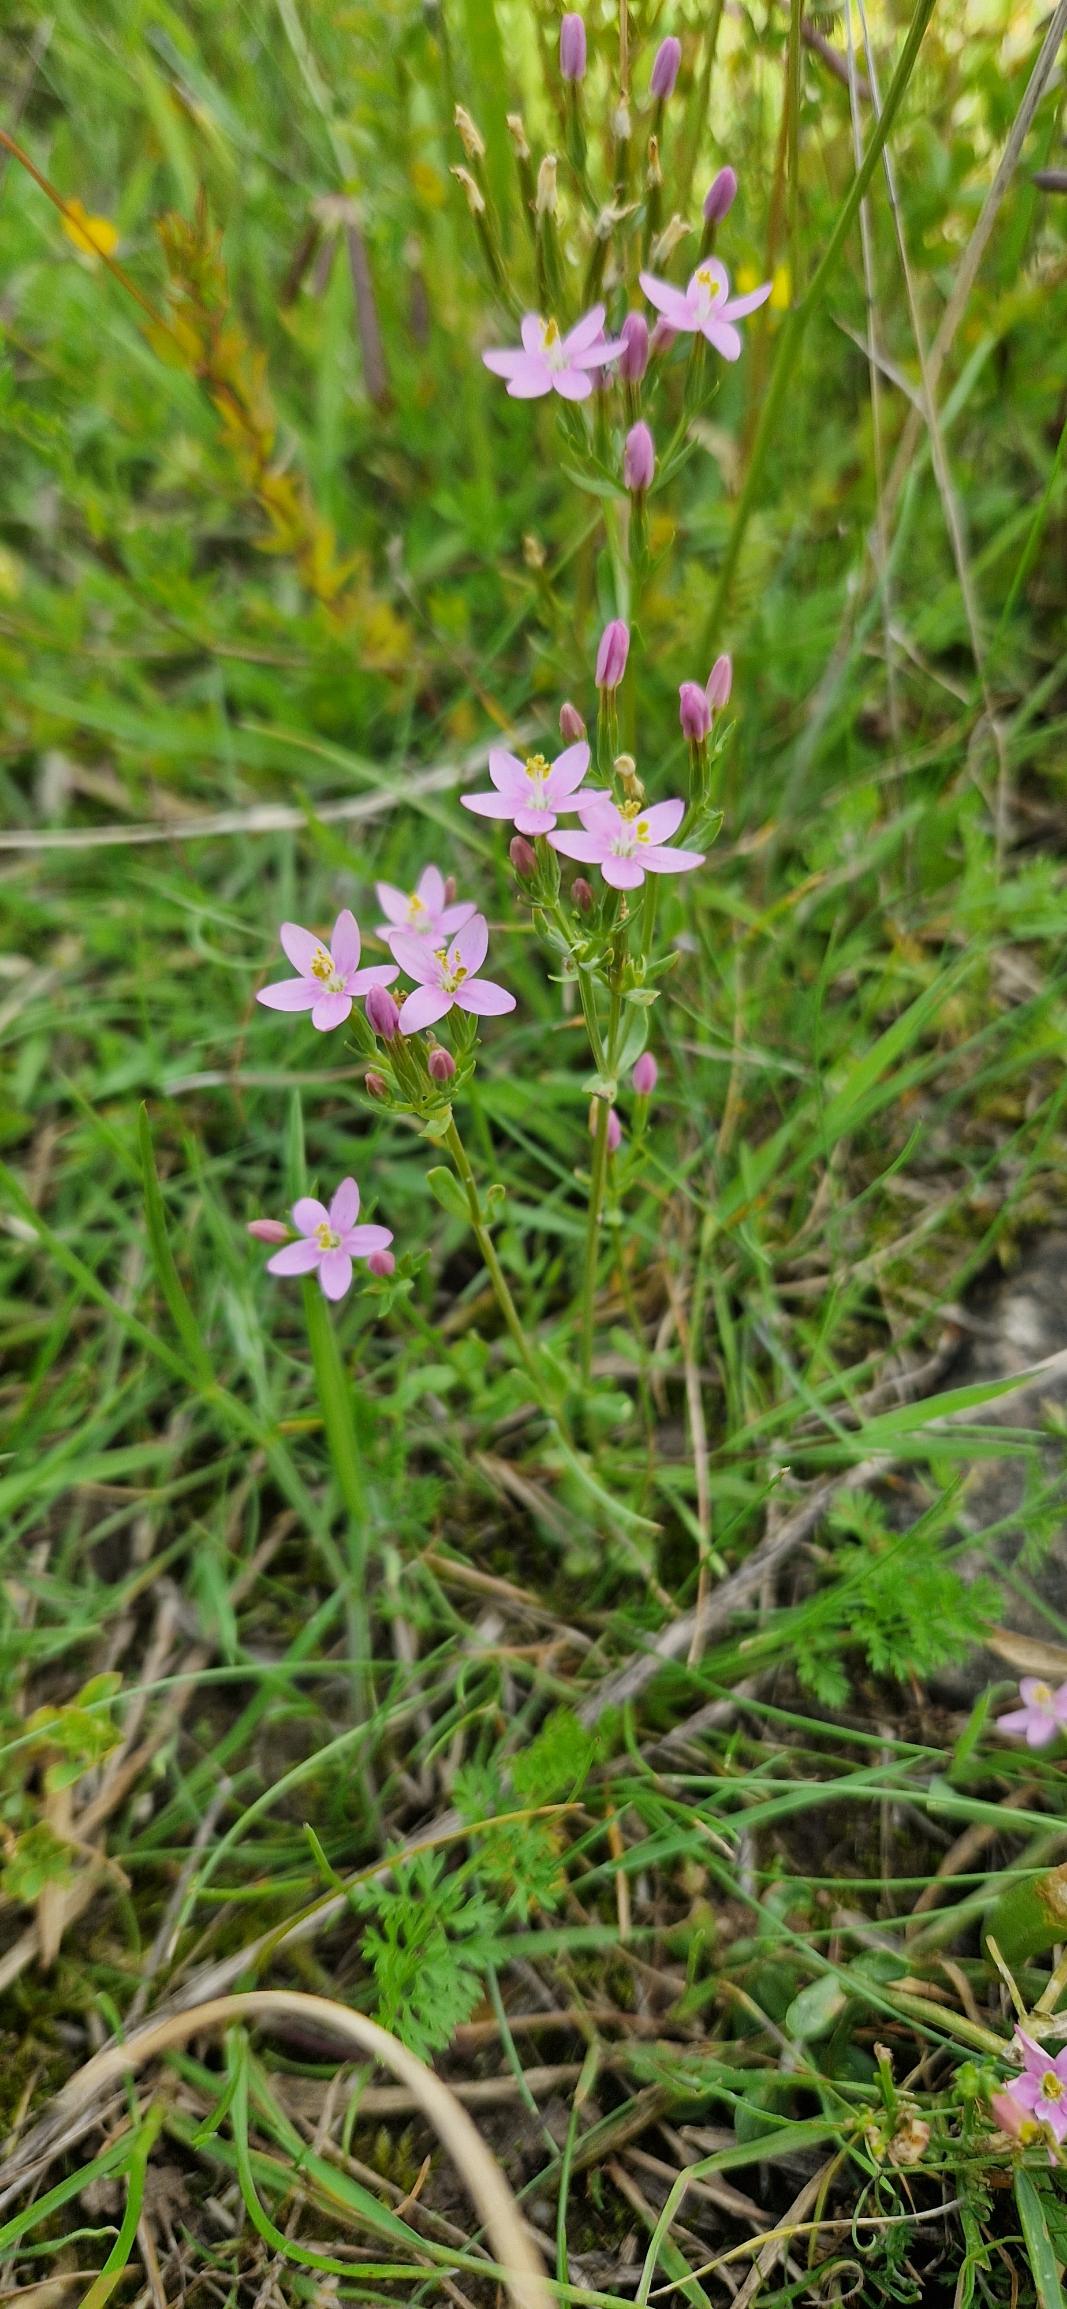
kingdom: Plantae
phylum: Tracheophyta
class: Magnoliopsida
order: Gentianales
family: Gentianaceae
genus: Centaurium
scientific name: Centaurium erythraea
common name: Mark-tusindgylden
